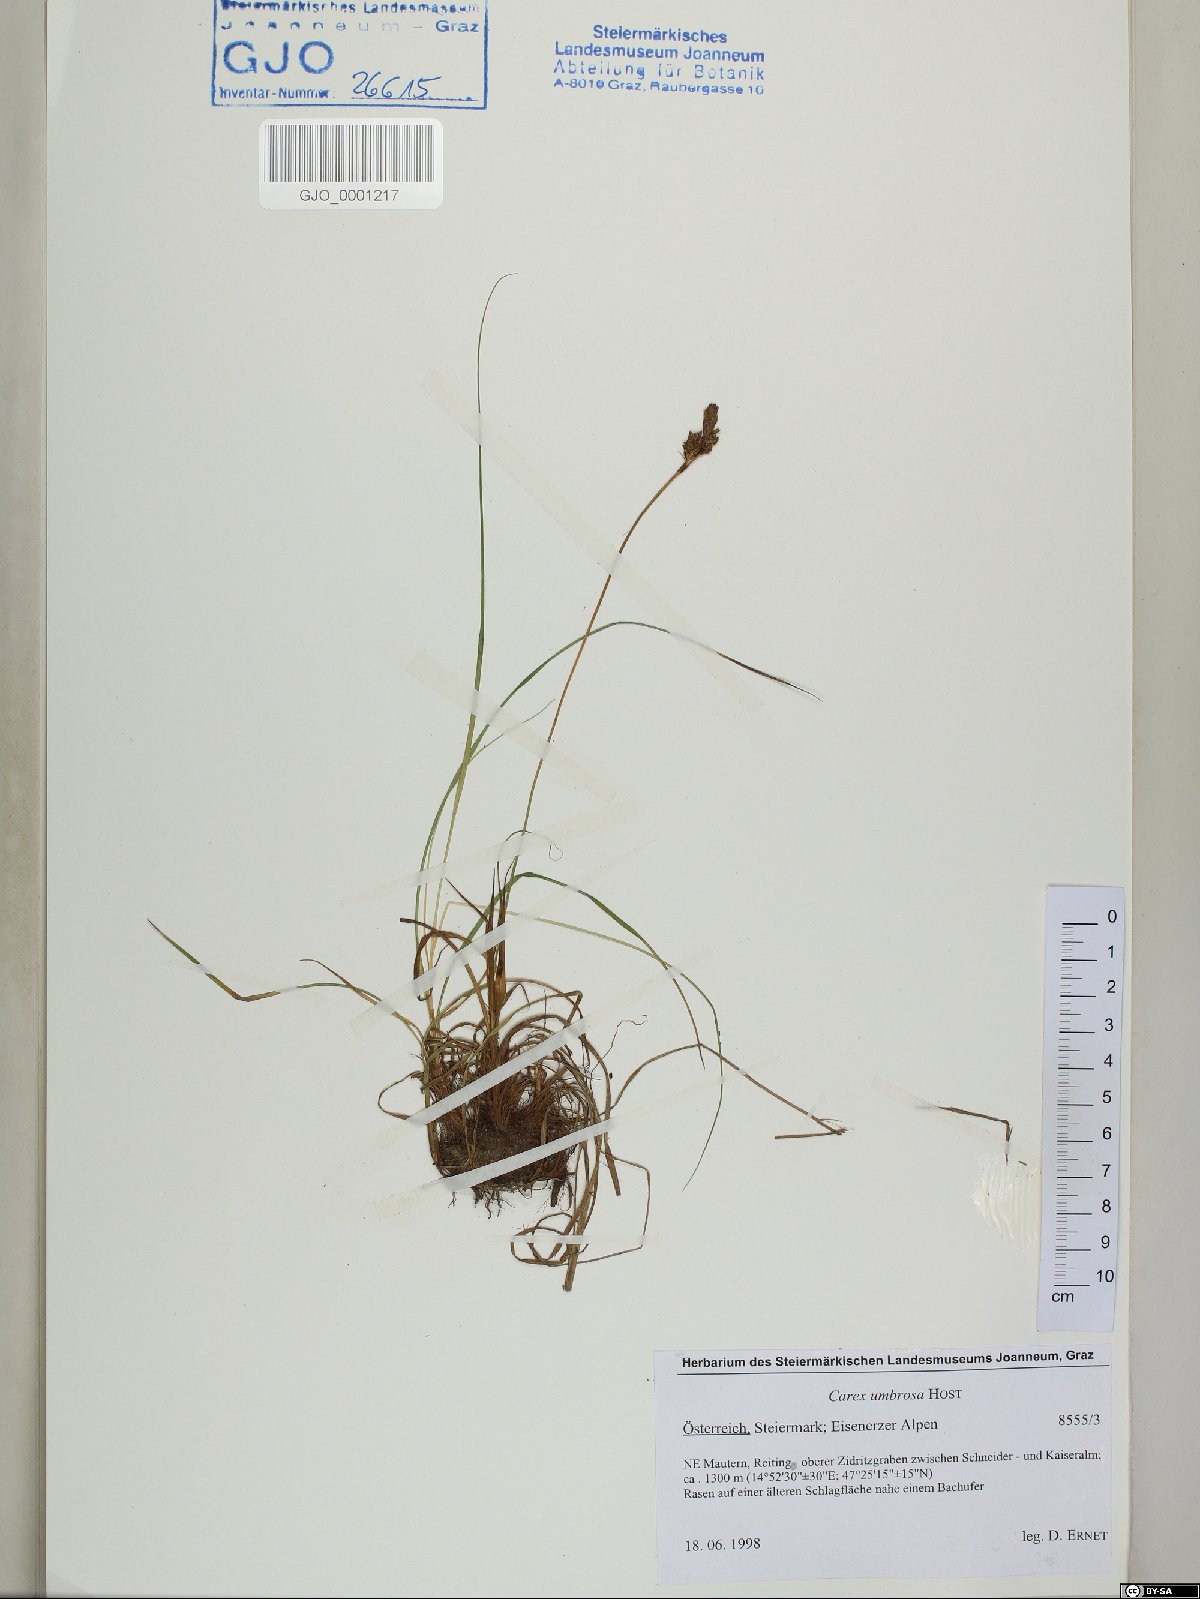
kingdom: Plantae
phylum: Tracheophyta
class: Liliopsida
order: Poales
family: Cyperaceae
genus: Carex
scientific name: Carex umbrosa
